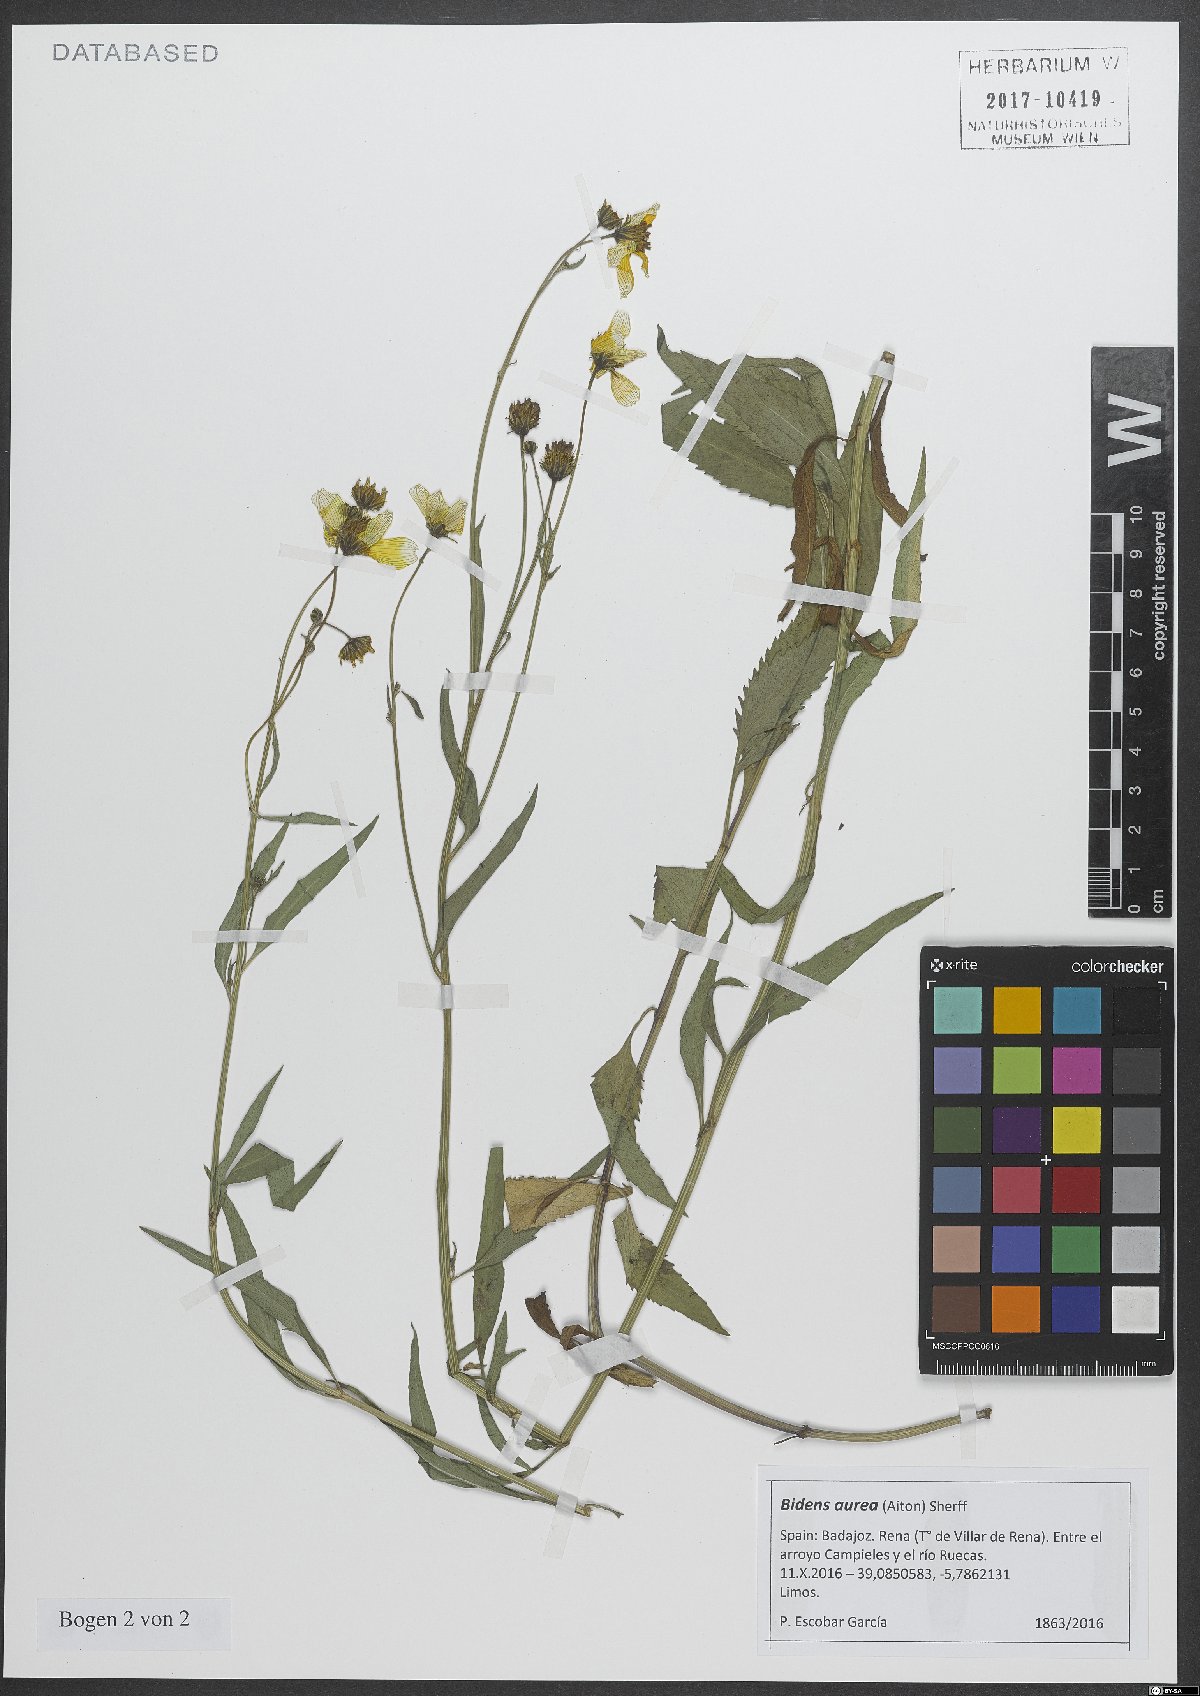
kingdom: Plantae
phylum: Tracheophyta
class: Magnoliopsida
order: Asterales
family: Asteraceae
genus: Bidens
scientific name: Bidens aurea
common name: Arizona beggar-ticks
